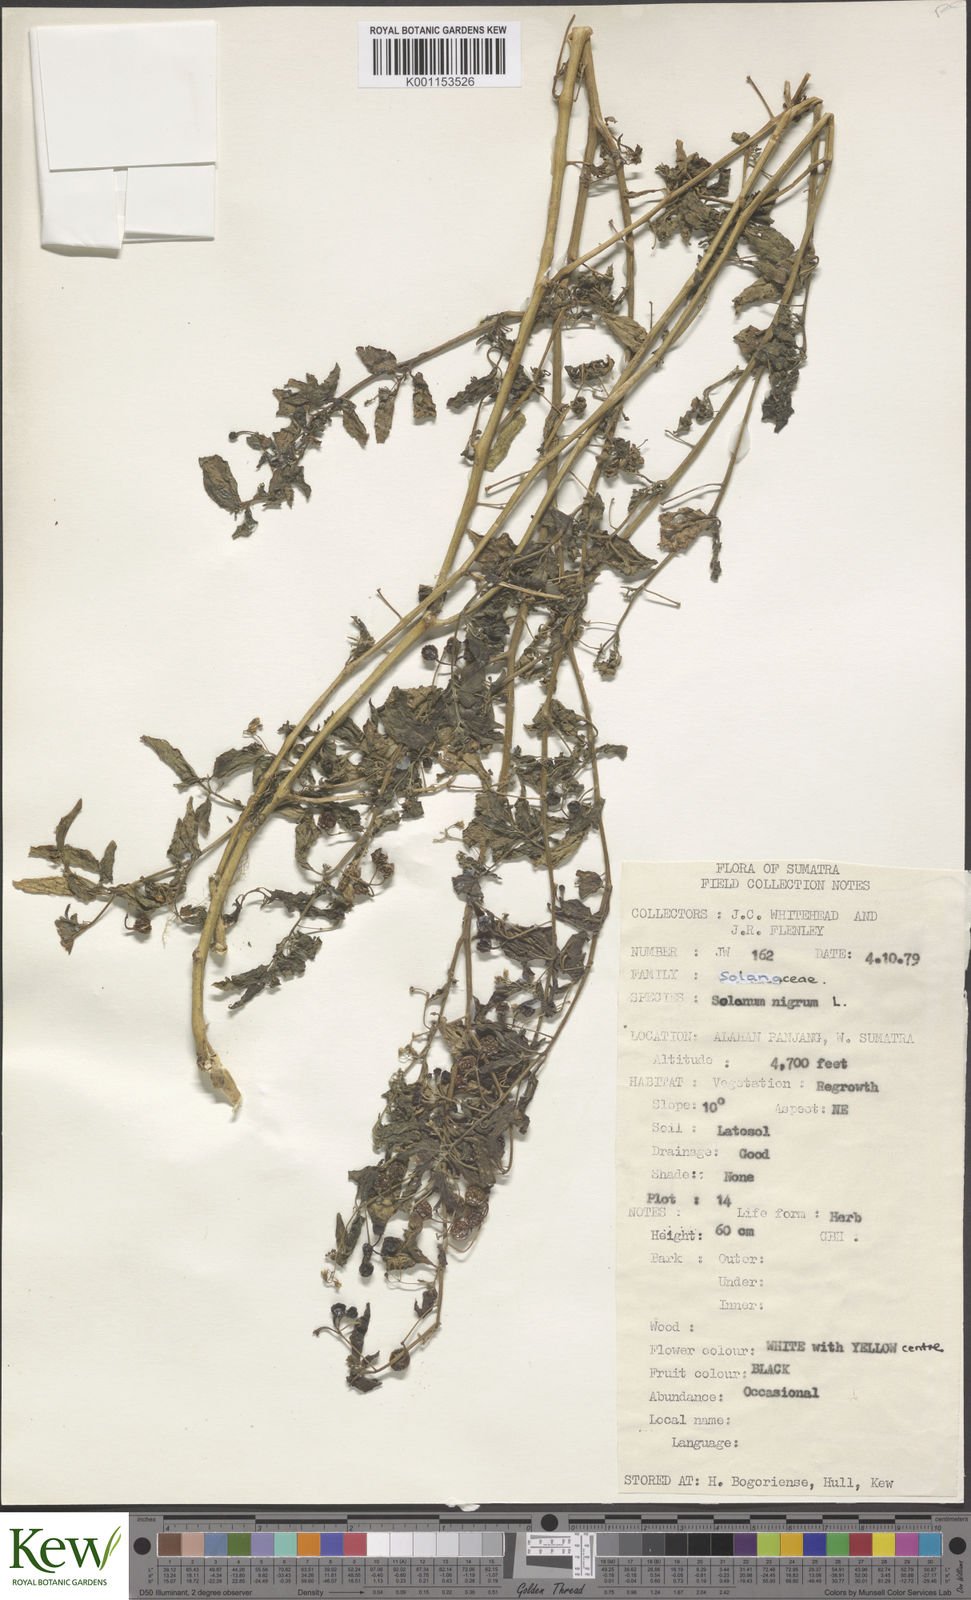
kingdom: Plantae
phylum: Tracheophyta
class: Magnoliopsida
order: Solanales
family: Solanaceae
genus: Solanum
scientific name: Solanum nigrum
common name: Black nightshade
